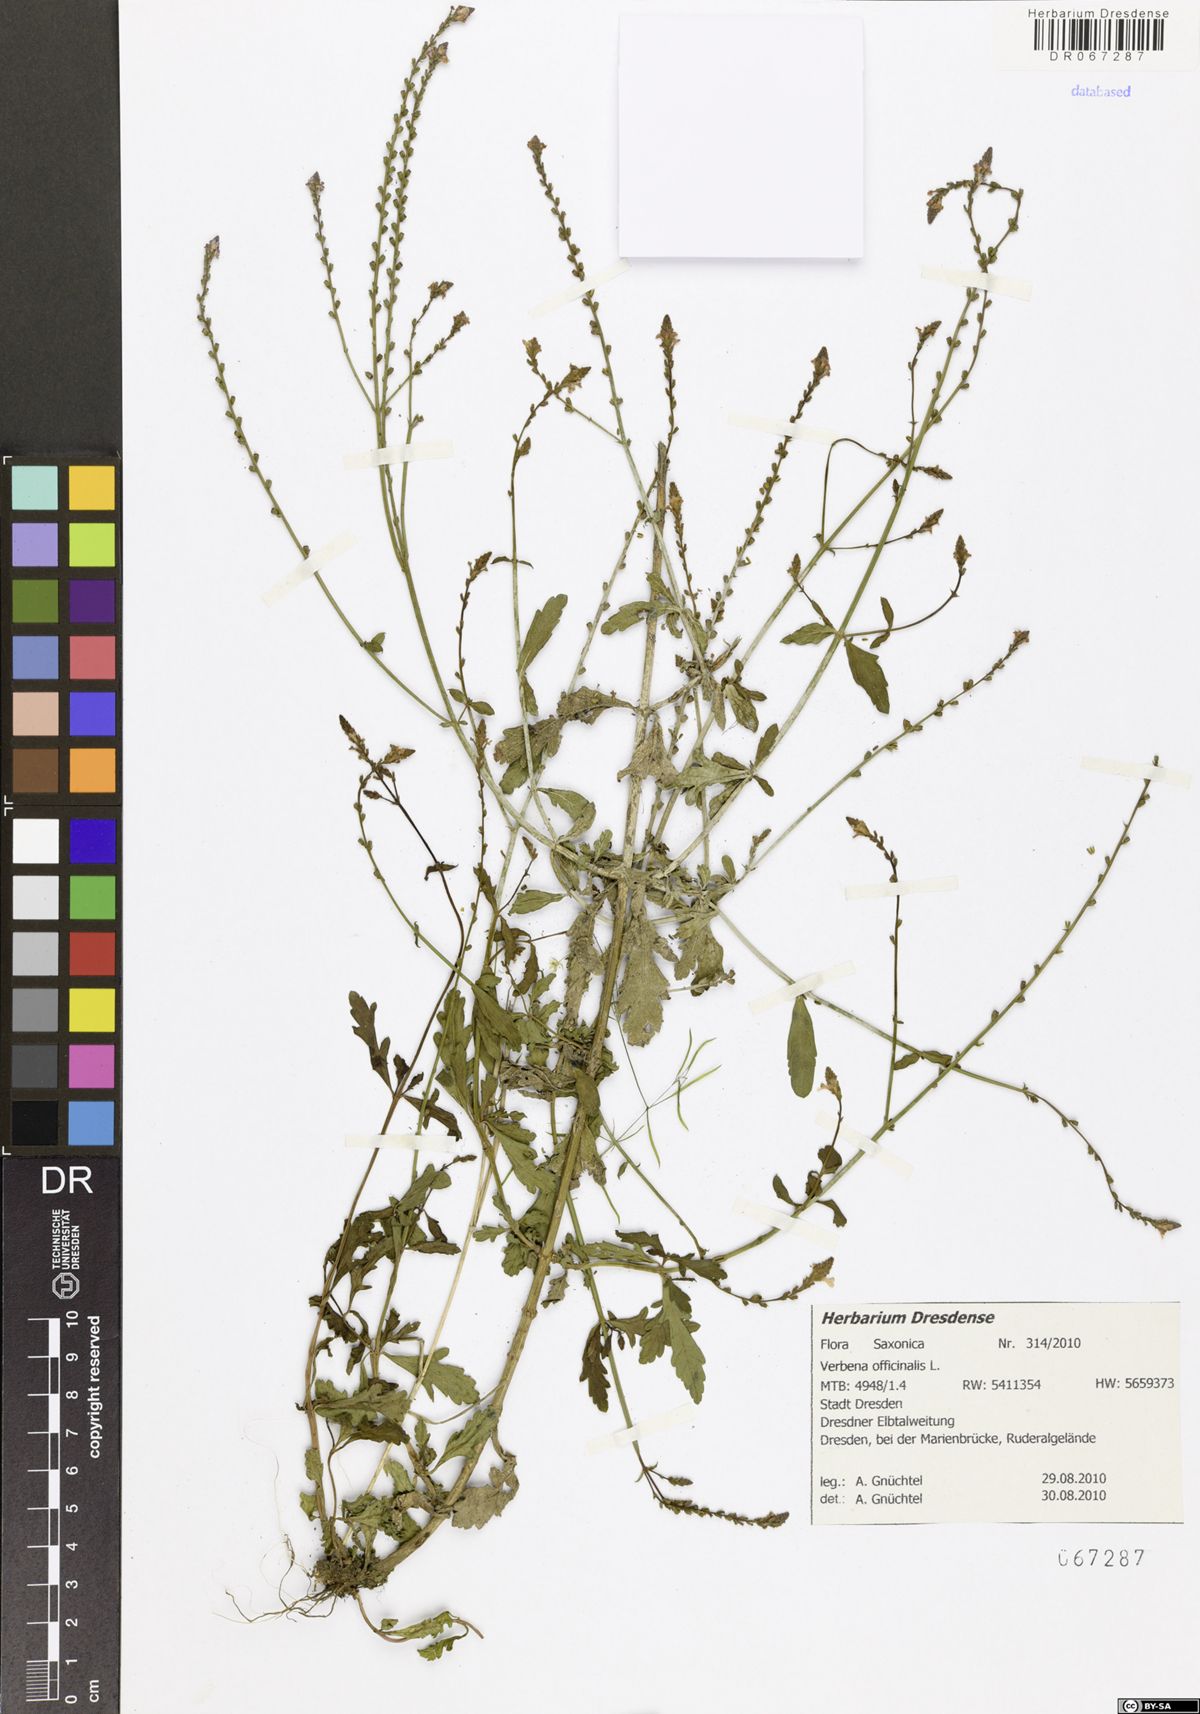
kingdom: Plantae
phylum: Tracheophyta
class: Magnoliopsida
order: Lamiales
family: Verbenaceae
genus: Verbena
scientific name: Verbena officinalis
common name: Vervain
